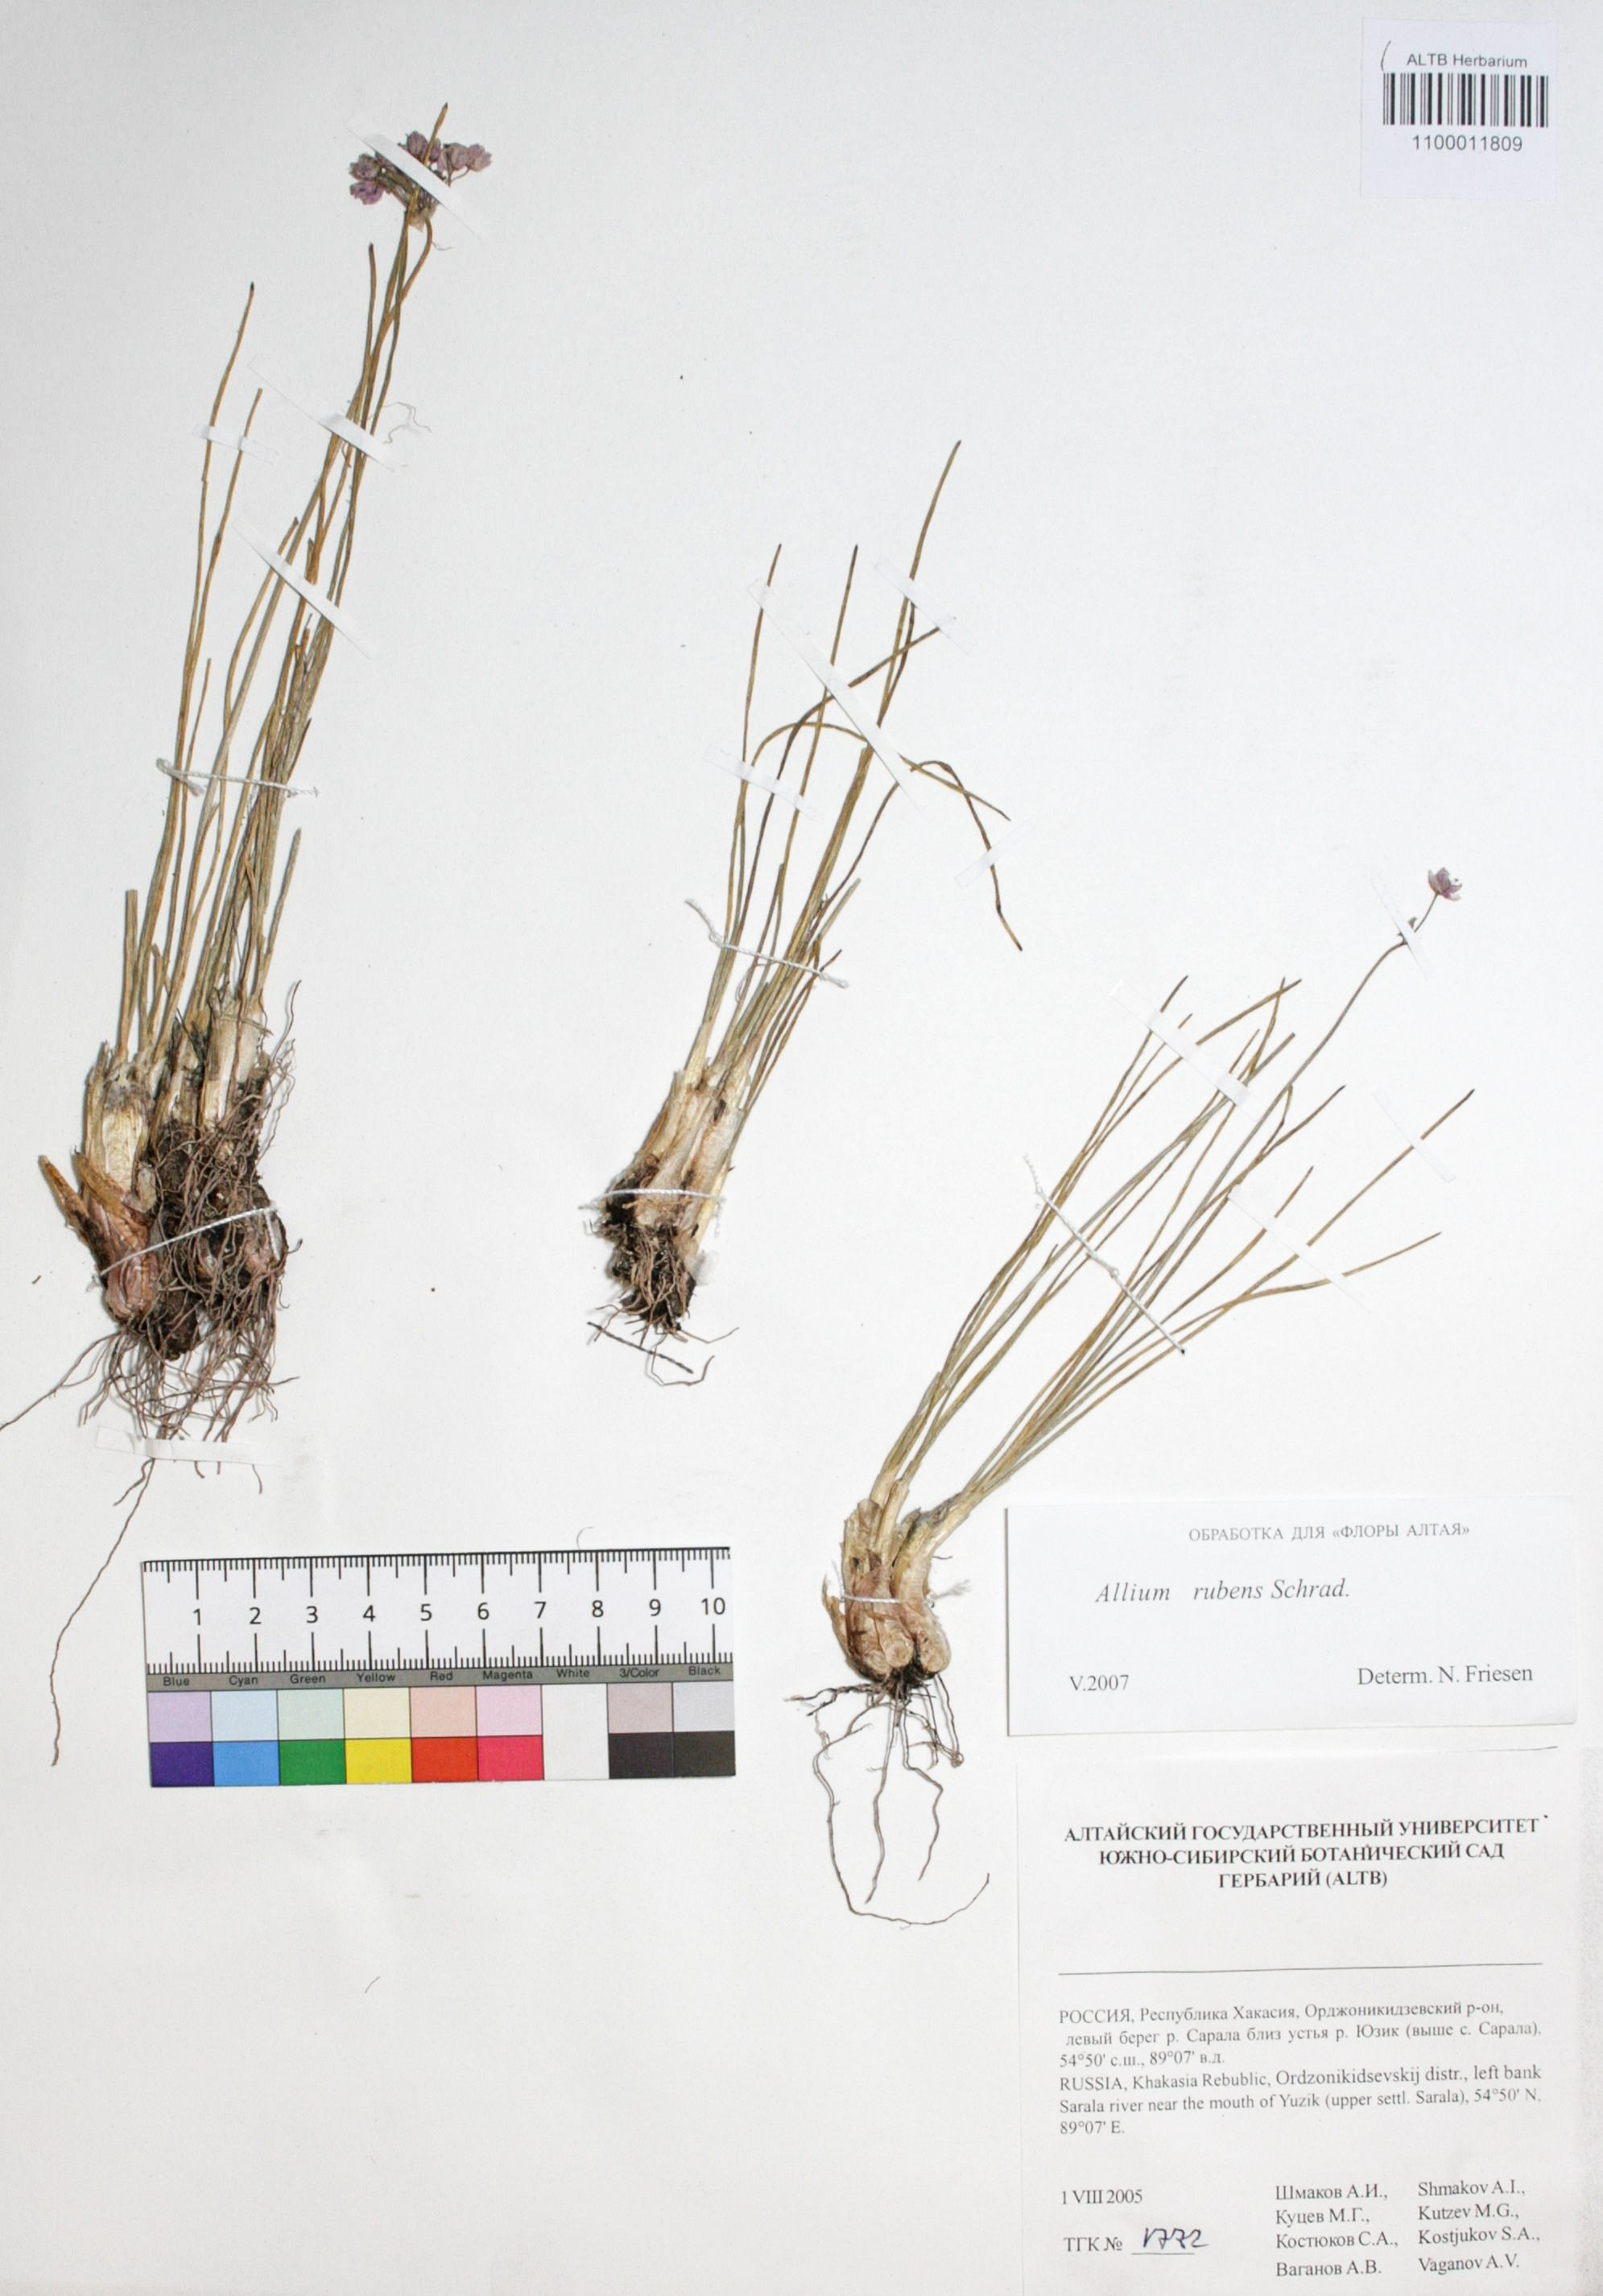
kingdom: Plantae
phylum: Tracheophyta
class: Liliopsida
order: Asparagales
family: Amaryllidaceae
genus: Allium
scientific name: Allium rubens
